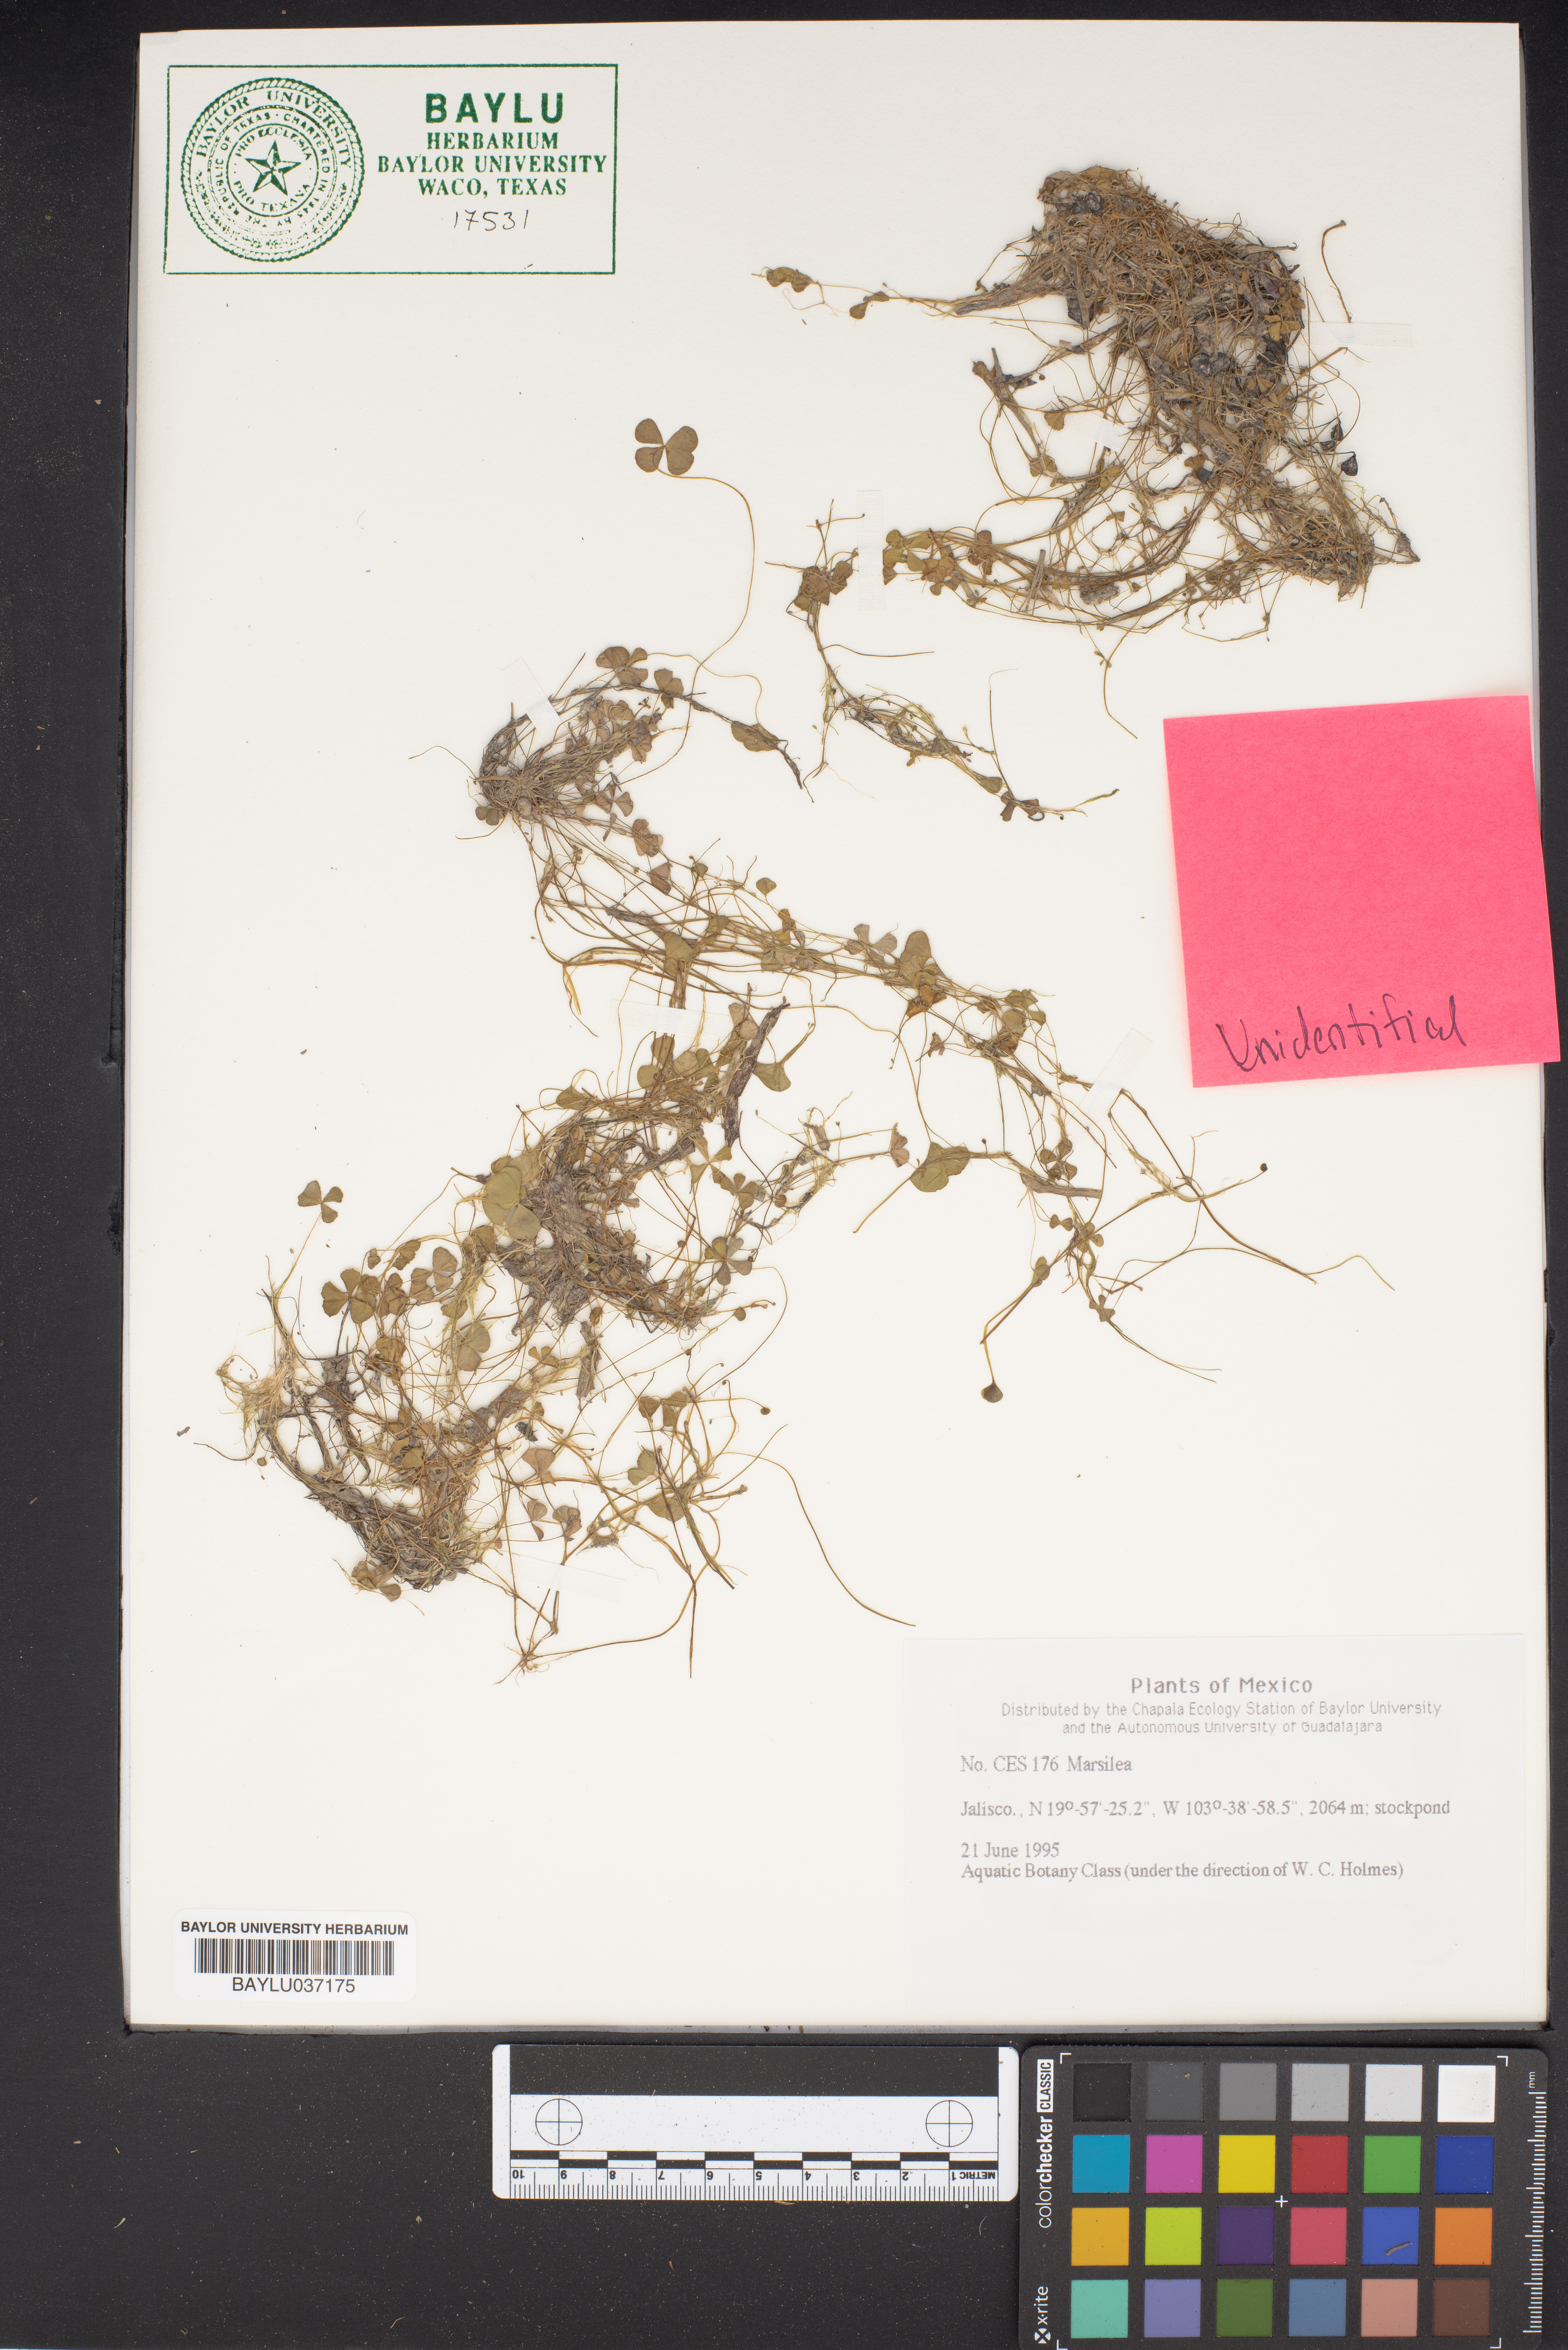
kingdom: Plantae
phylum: Tracheophyta
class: Polypodiopsida
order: Salviniales
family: Marsileaceae
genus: Marsilea
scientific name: Marsilea
